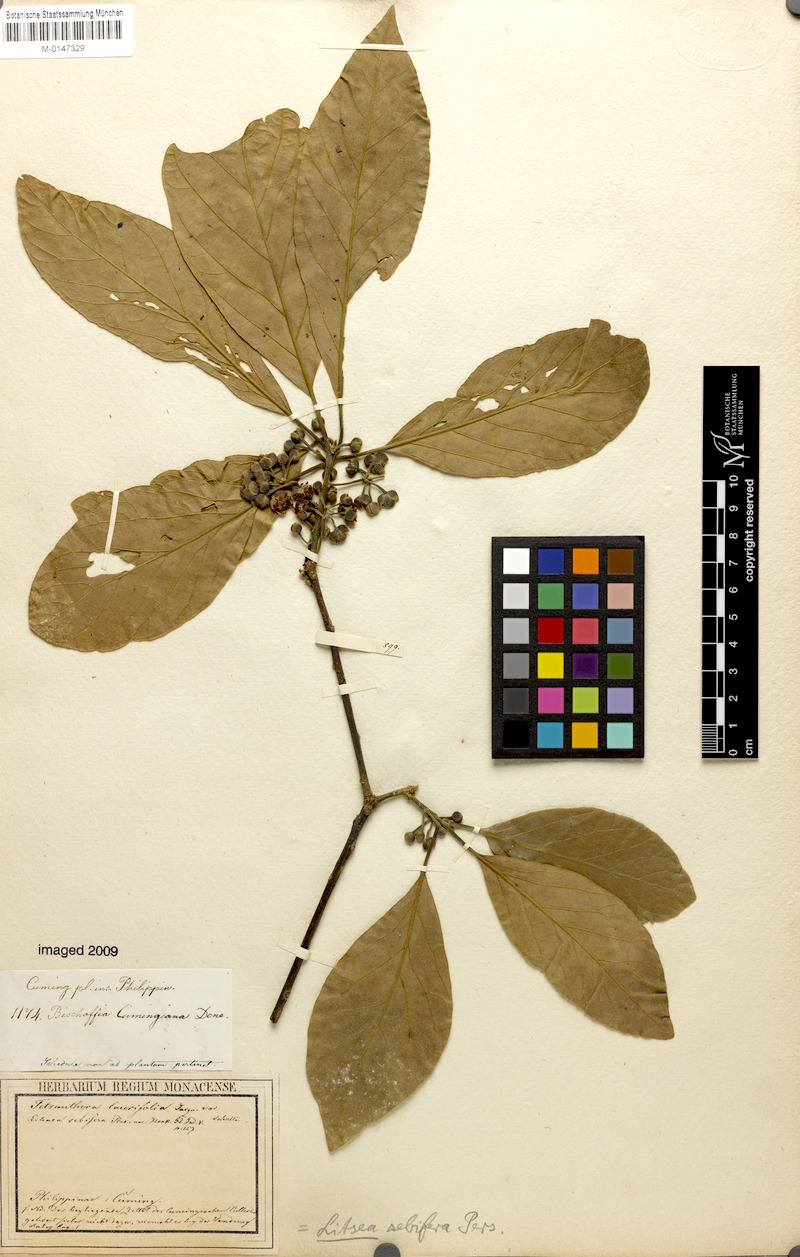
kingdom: Plantae
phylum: Tracheophyta
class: Magnoliopsida
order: Laurales
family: Lauraceae
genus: Litsea
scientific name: Litsea glutinosa
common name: Indian-laurel
